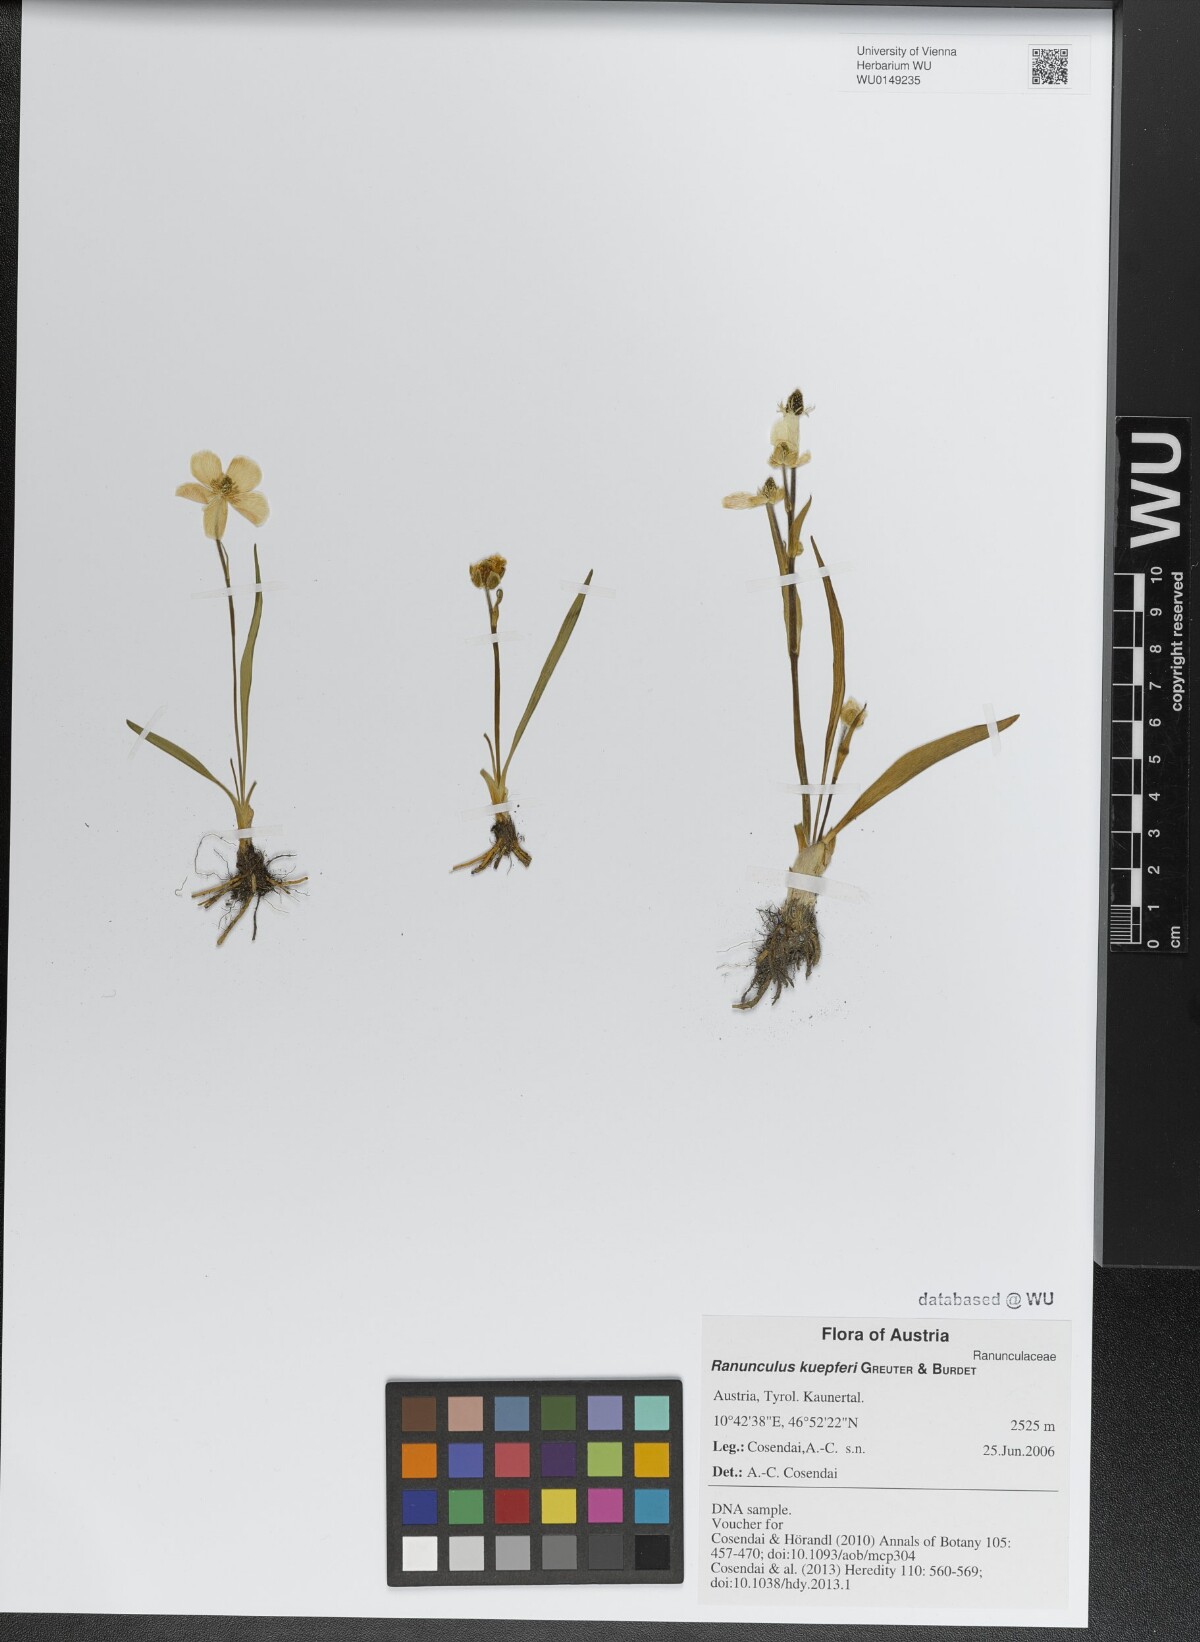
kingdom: Plantae
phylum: Tracheophyta
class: Magnoliopsida
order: Ranunculales
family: Ranunculaceae
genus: Ranunculus
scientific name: Ranunculus kuepferi
